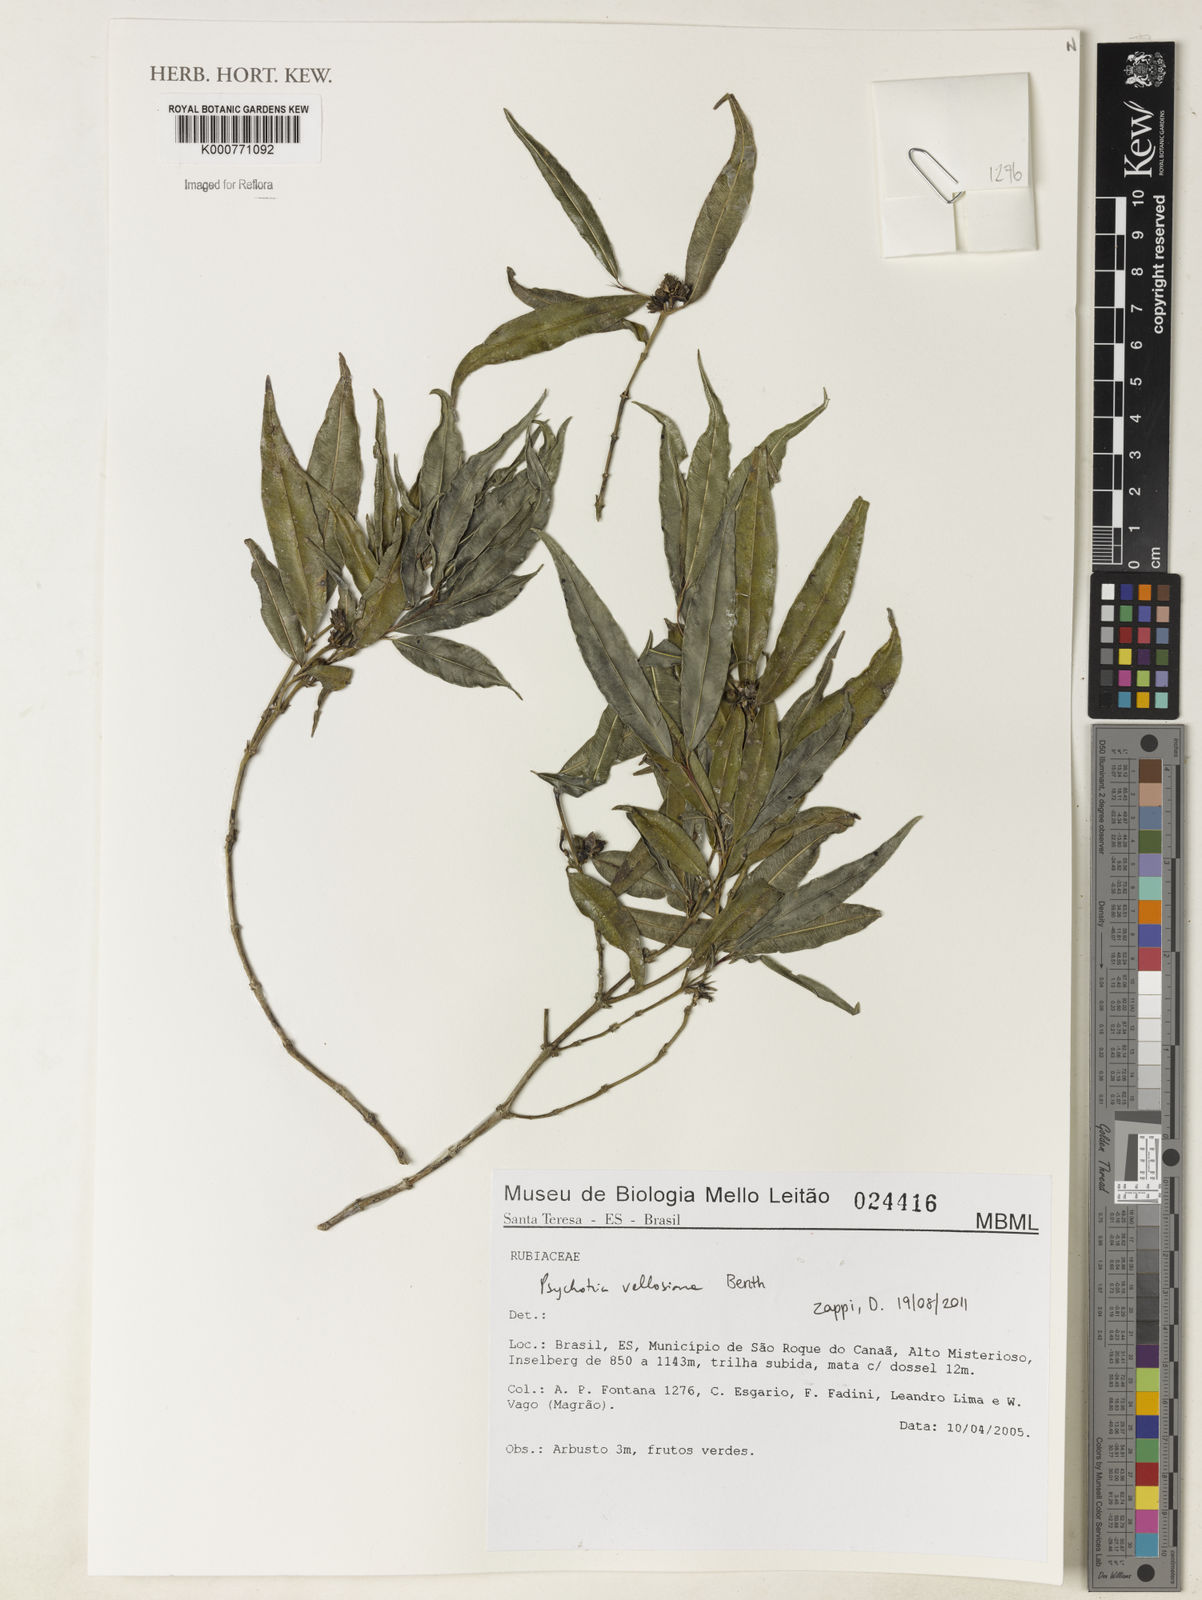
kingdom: Plantae
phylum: Tracheophyta
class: Magnoliopsida
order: Gentianales
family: Rubiaceae
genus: Palicourea
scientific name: Palicourea sessilis
